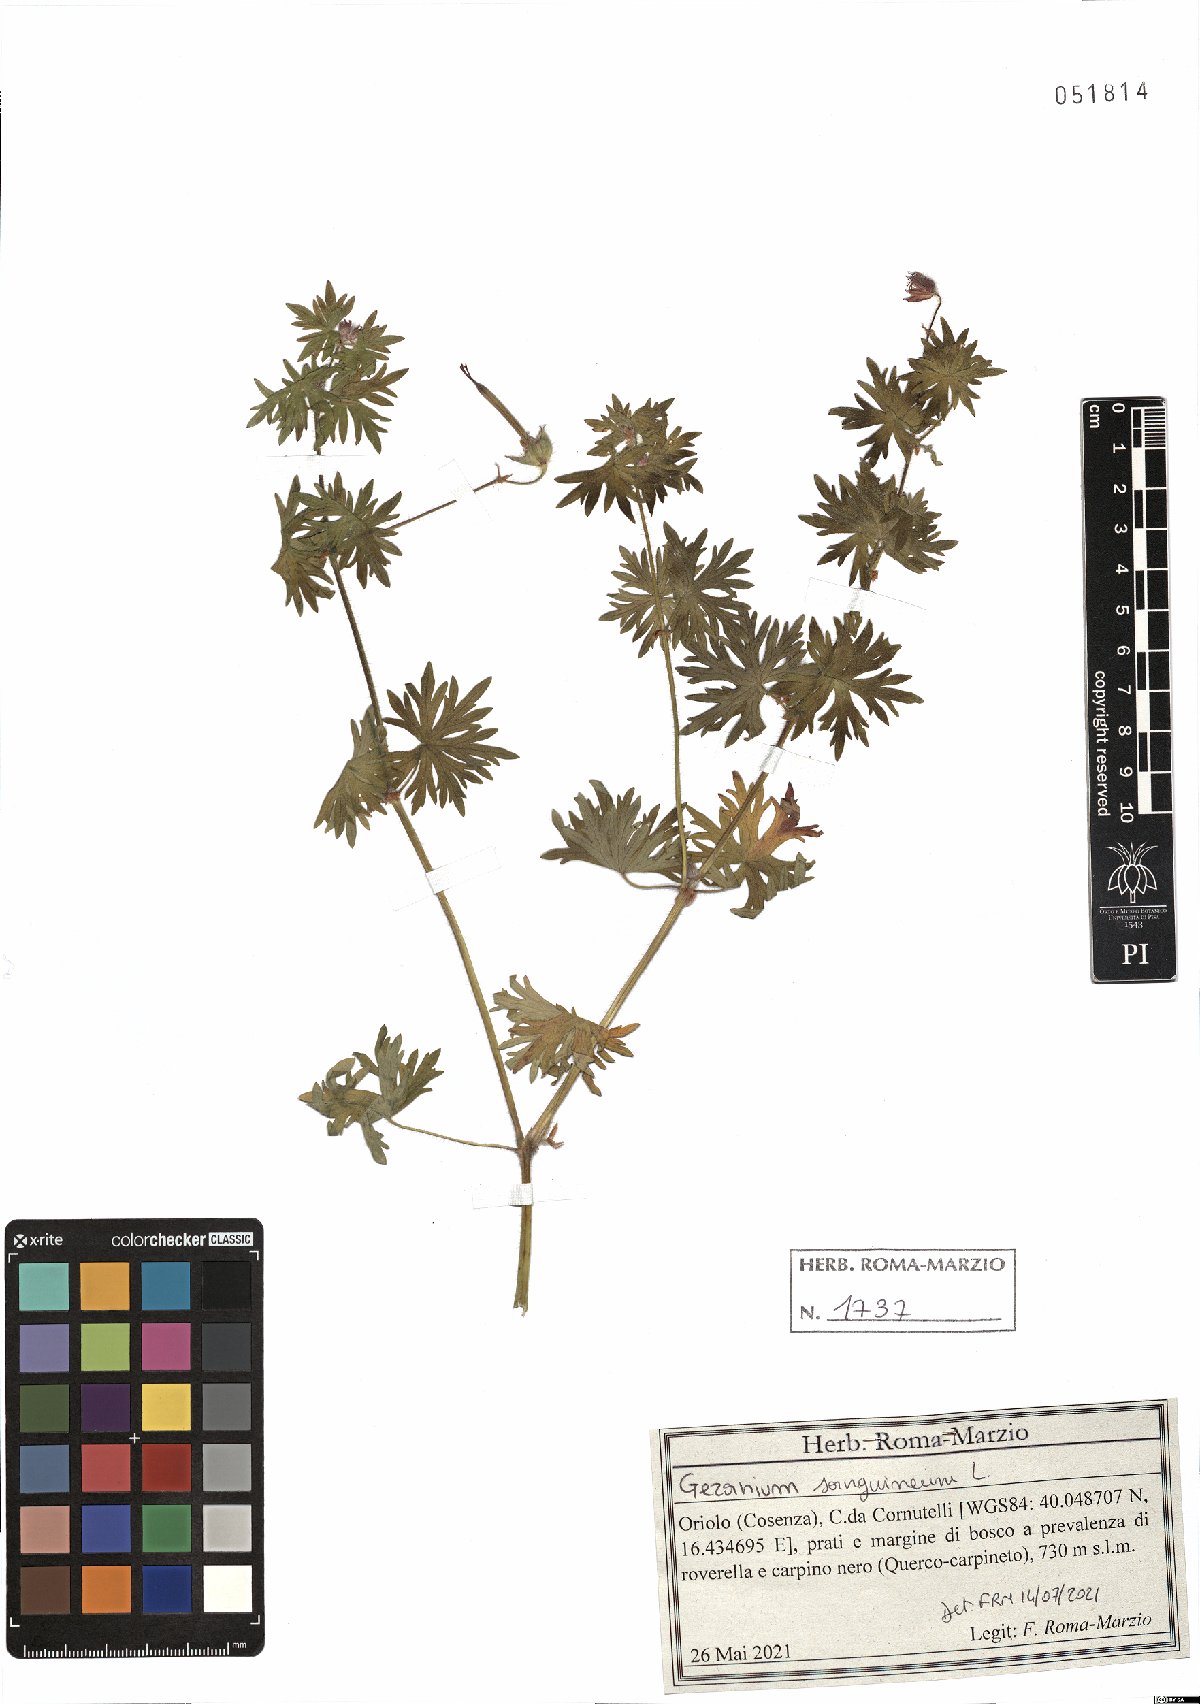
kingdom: Plantae
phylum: Tracheophyta
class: Magnoliopsida
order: Geraniales
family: Geraniaceae
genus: Geranium
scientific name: Geranium sanguineum
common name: Bloody crane's-bill
